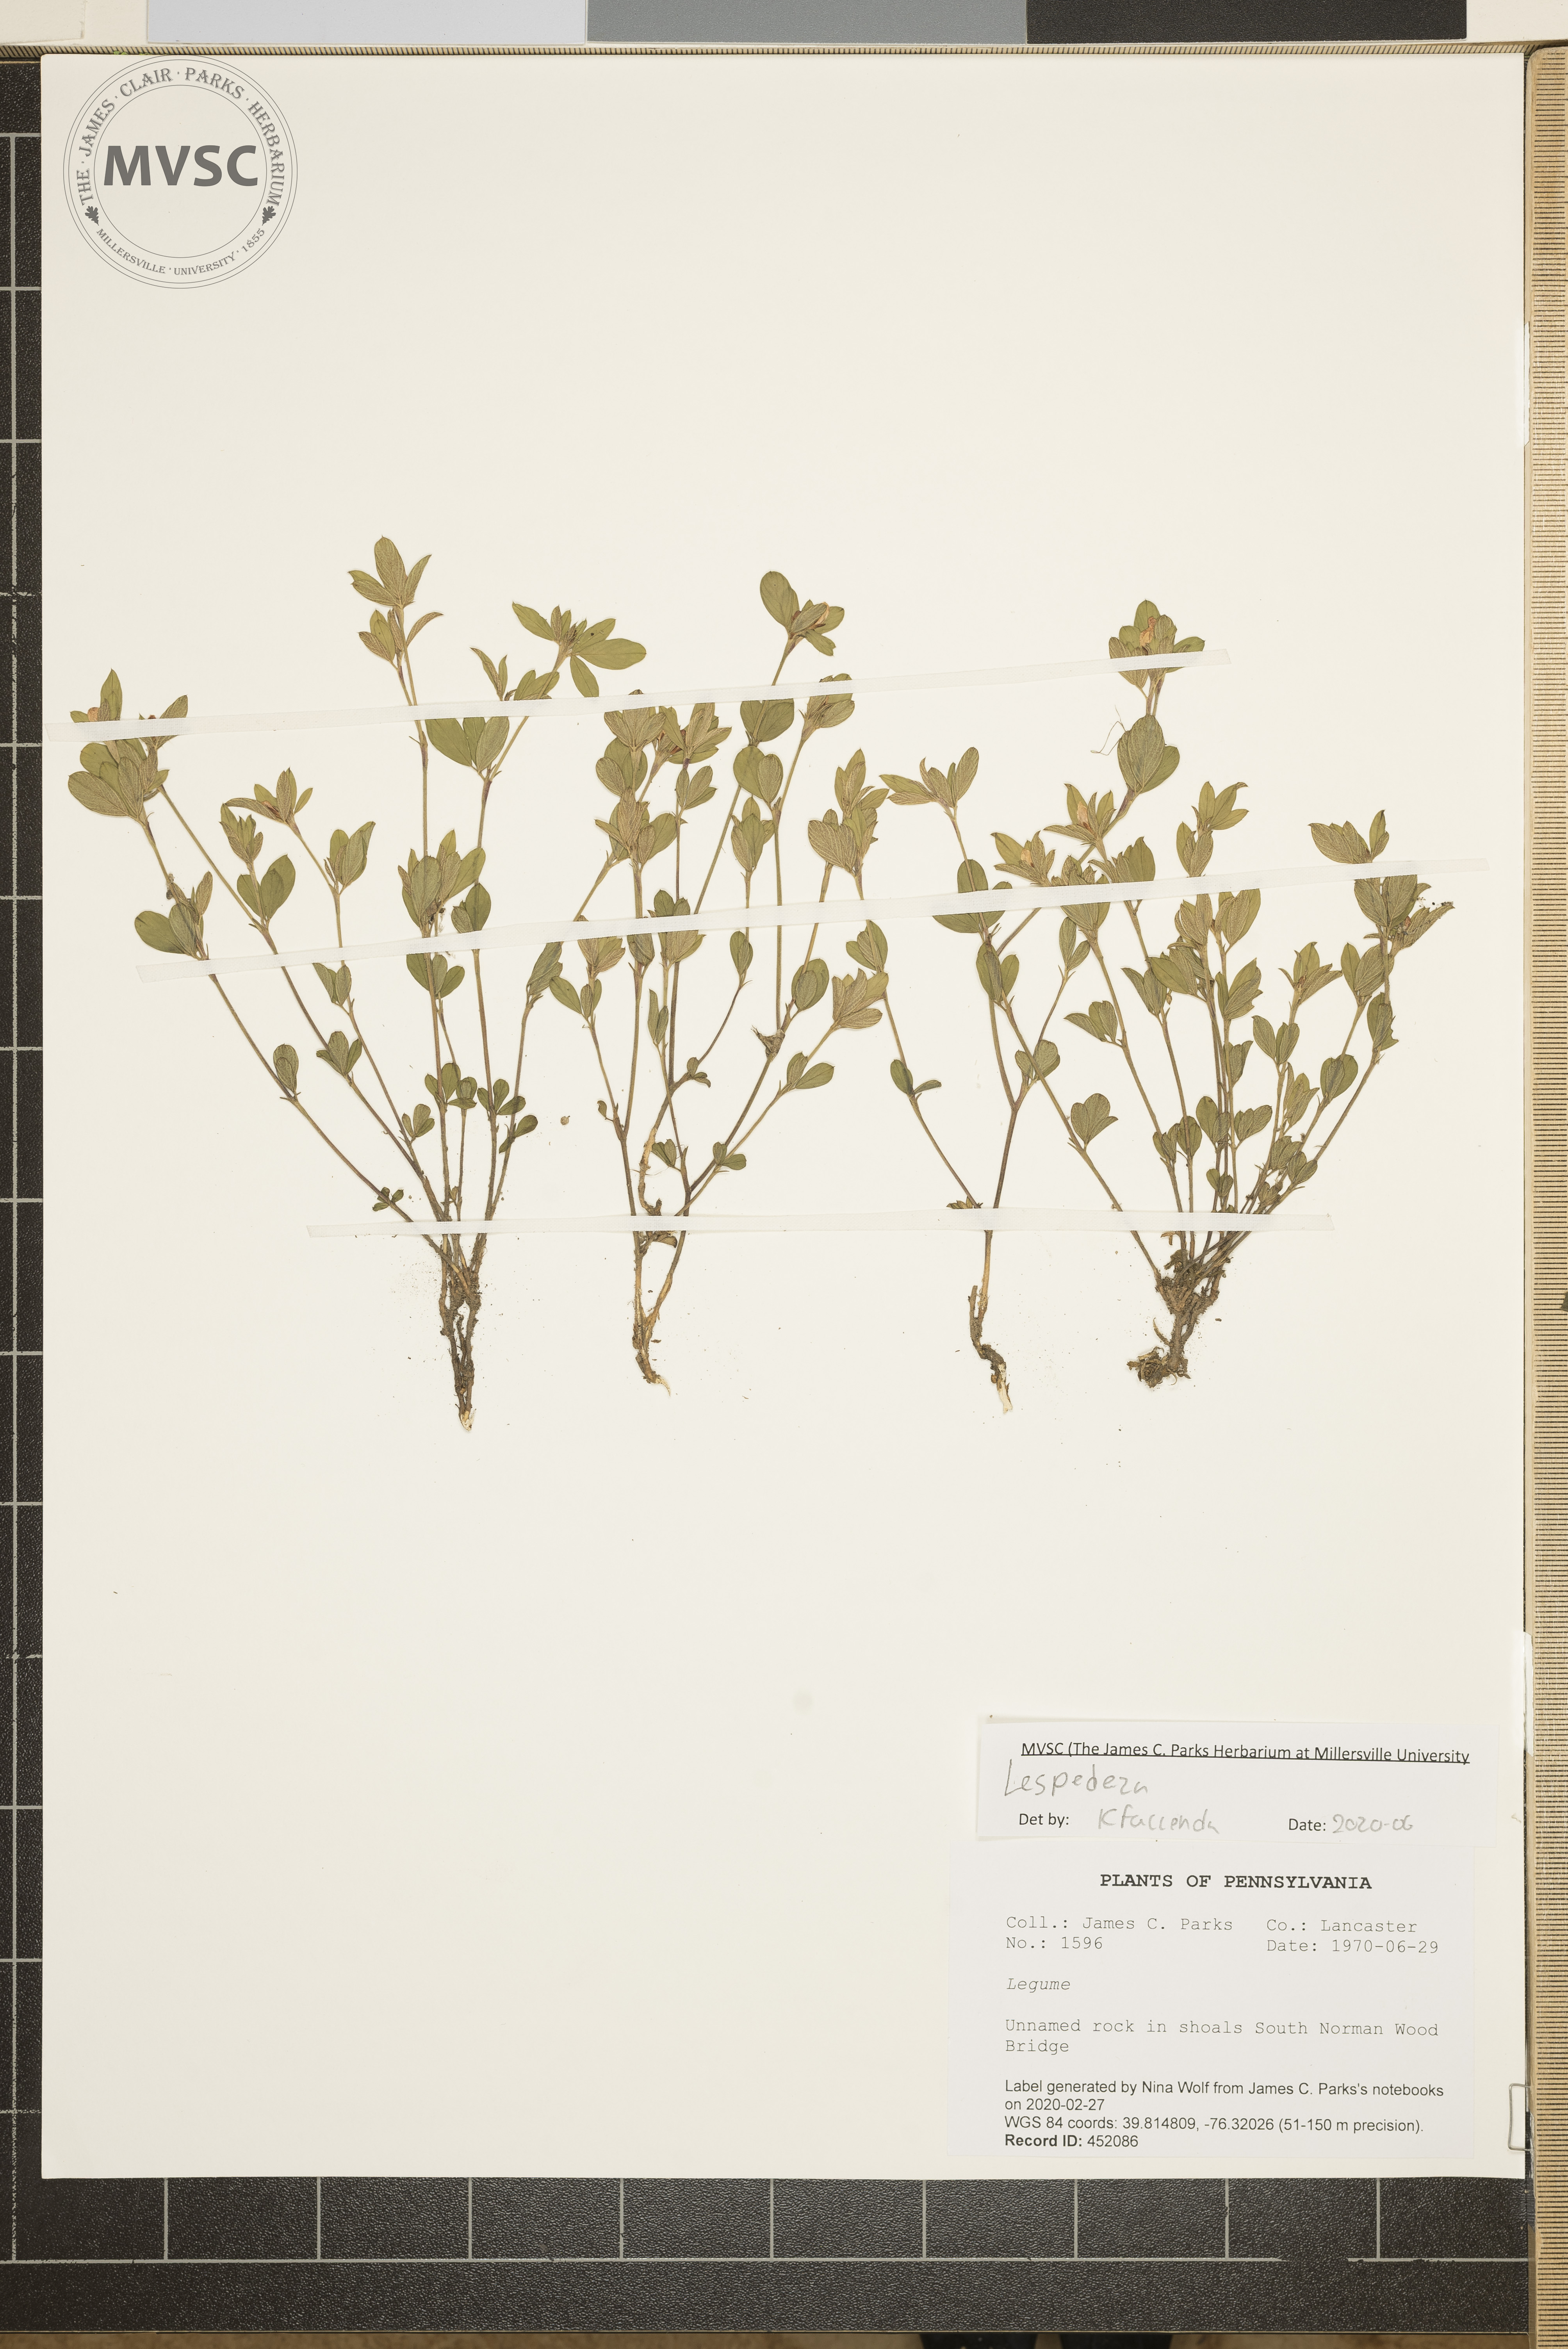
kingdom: Plantae
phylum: Tracheophyta
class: Magnoliopsida
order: Fabales
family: Fabaceae
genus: Lespedeza
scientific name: Lespedeza
